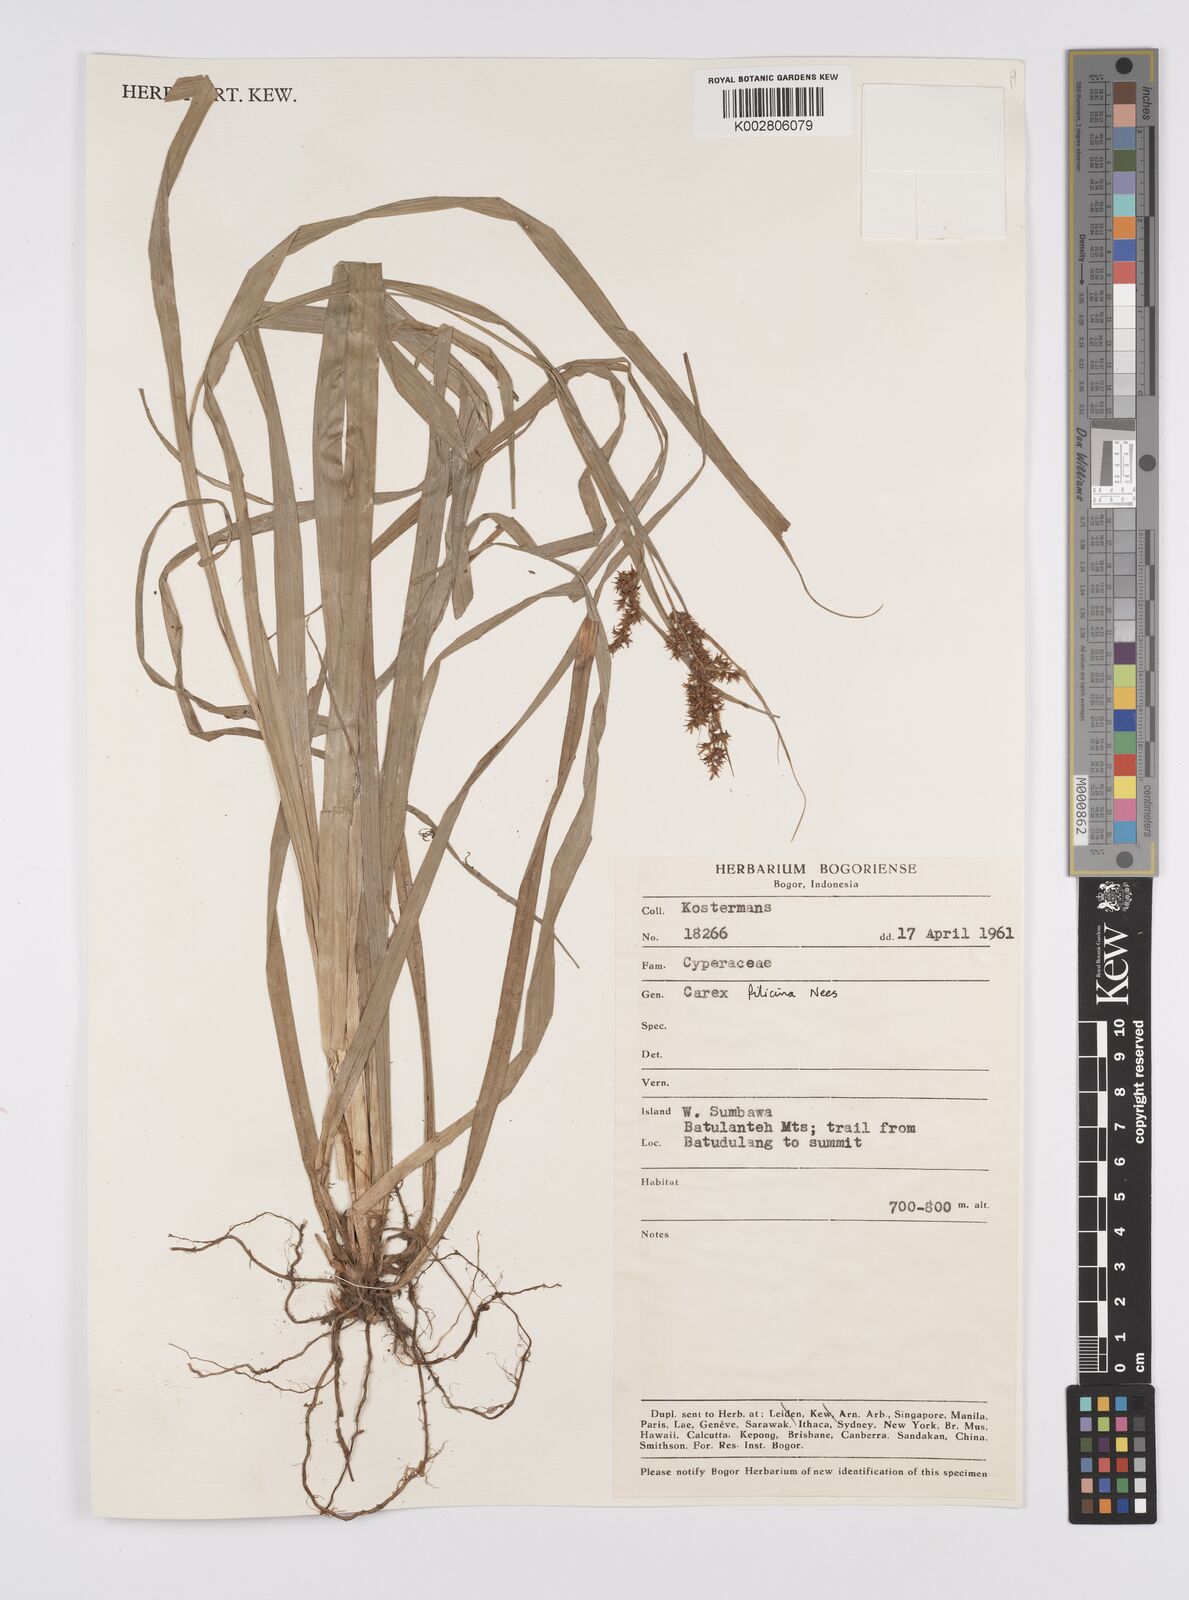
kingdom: Plantae
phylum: Tracheophyta
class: Liliopsida
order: Poales
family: Cyperaceae
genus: Carex
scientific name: Carex filicina
